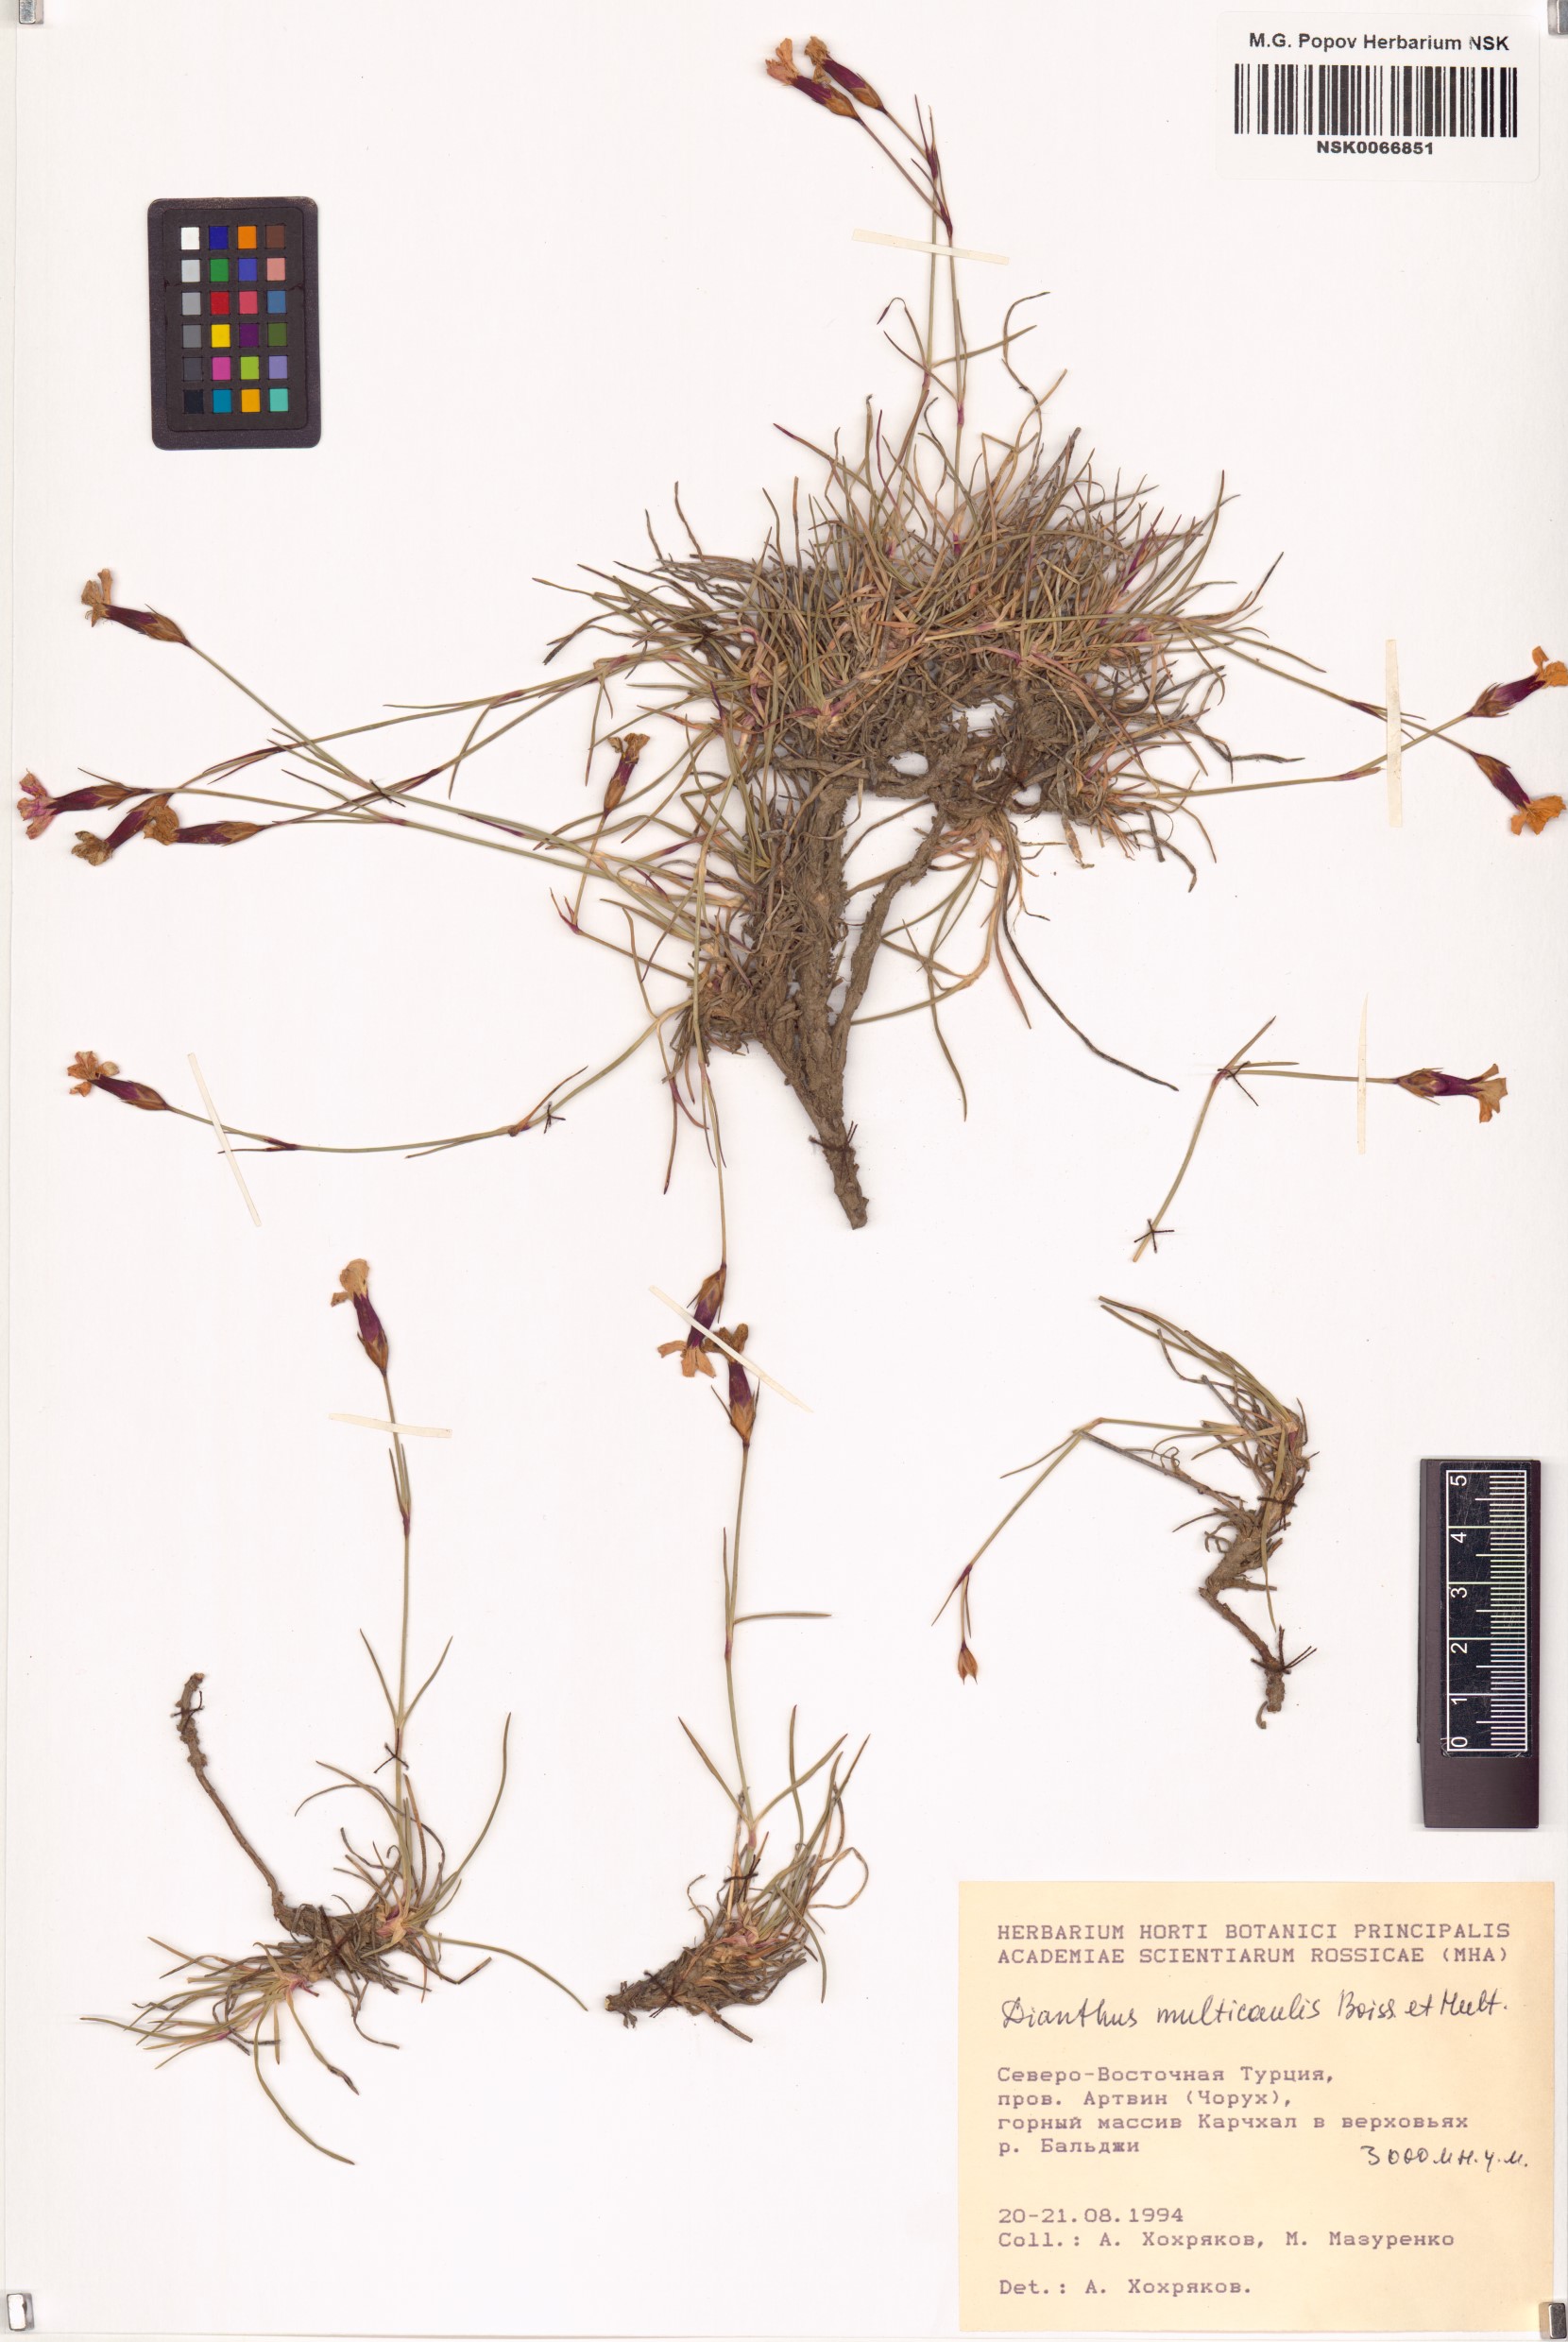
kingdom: Plantae
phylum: Tracheophyta
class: Magnoliopsida
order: Caryophyllales
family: Caryophyllaceae
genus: Dianthus
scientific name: Dianthus cretaceus
